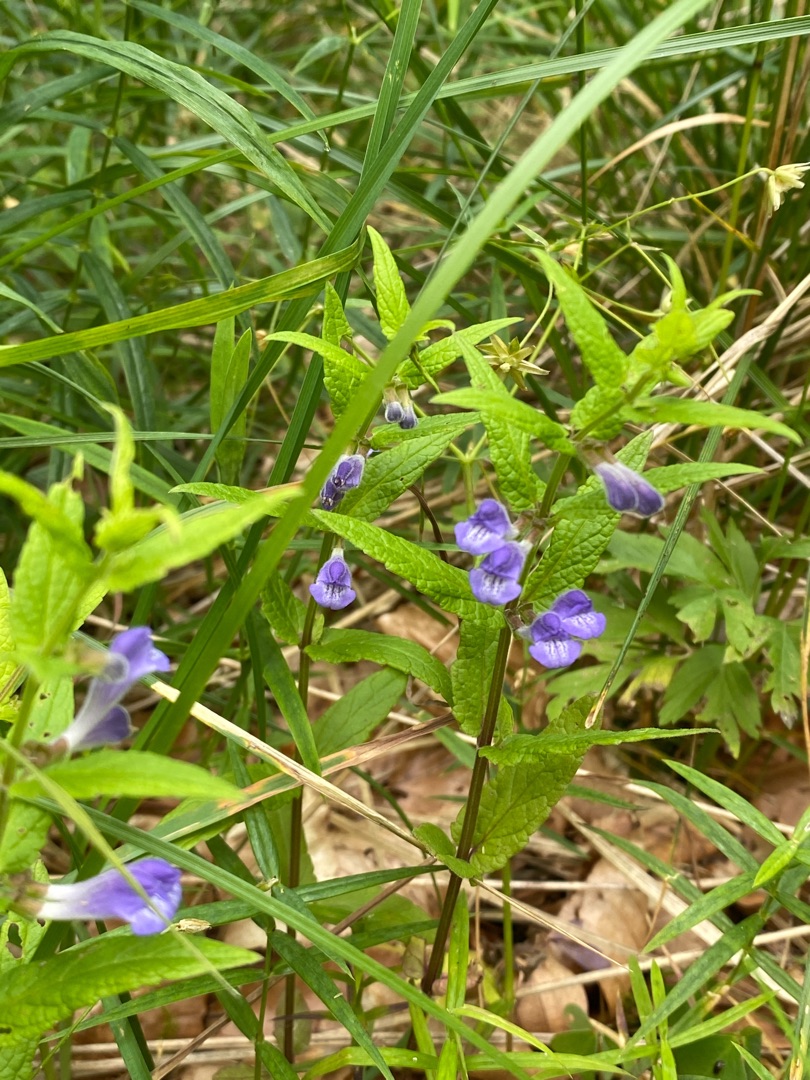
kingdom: Plantae
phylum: Tracheophyta
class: Magnoliopsida
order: Lamiales
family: Lamiaceae
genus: Scutellaria
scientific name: Scutellaria galericulata
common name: Almindelig skjolddrager
